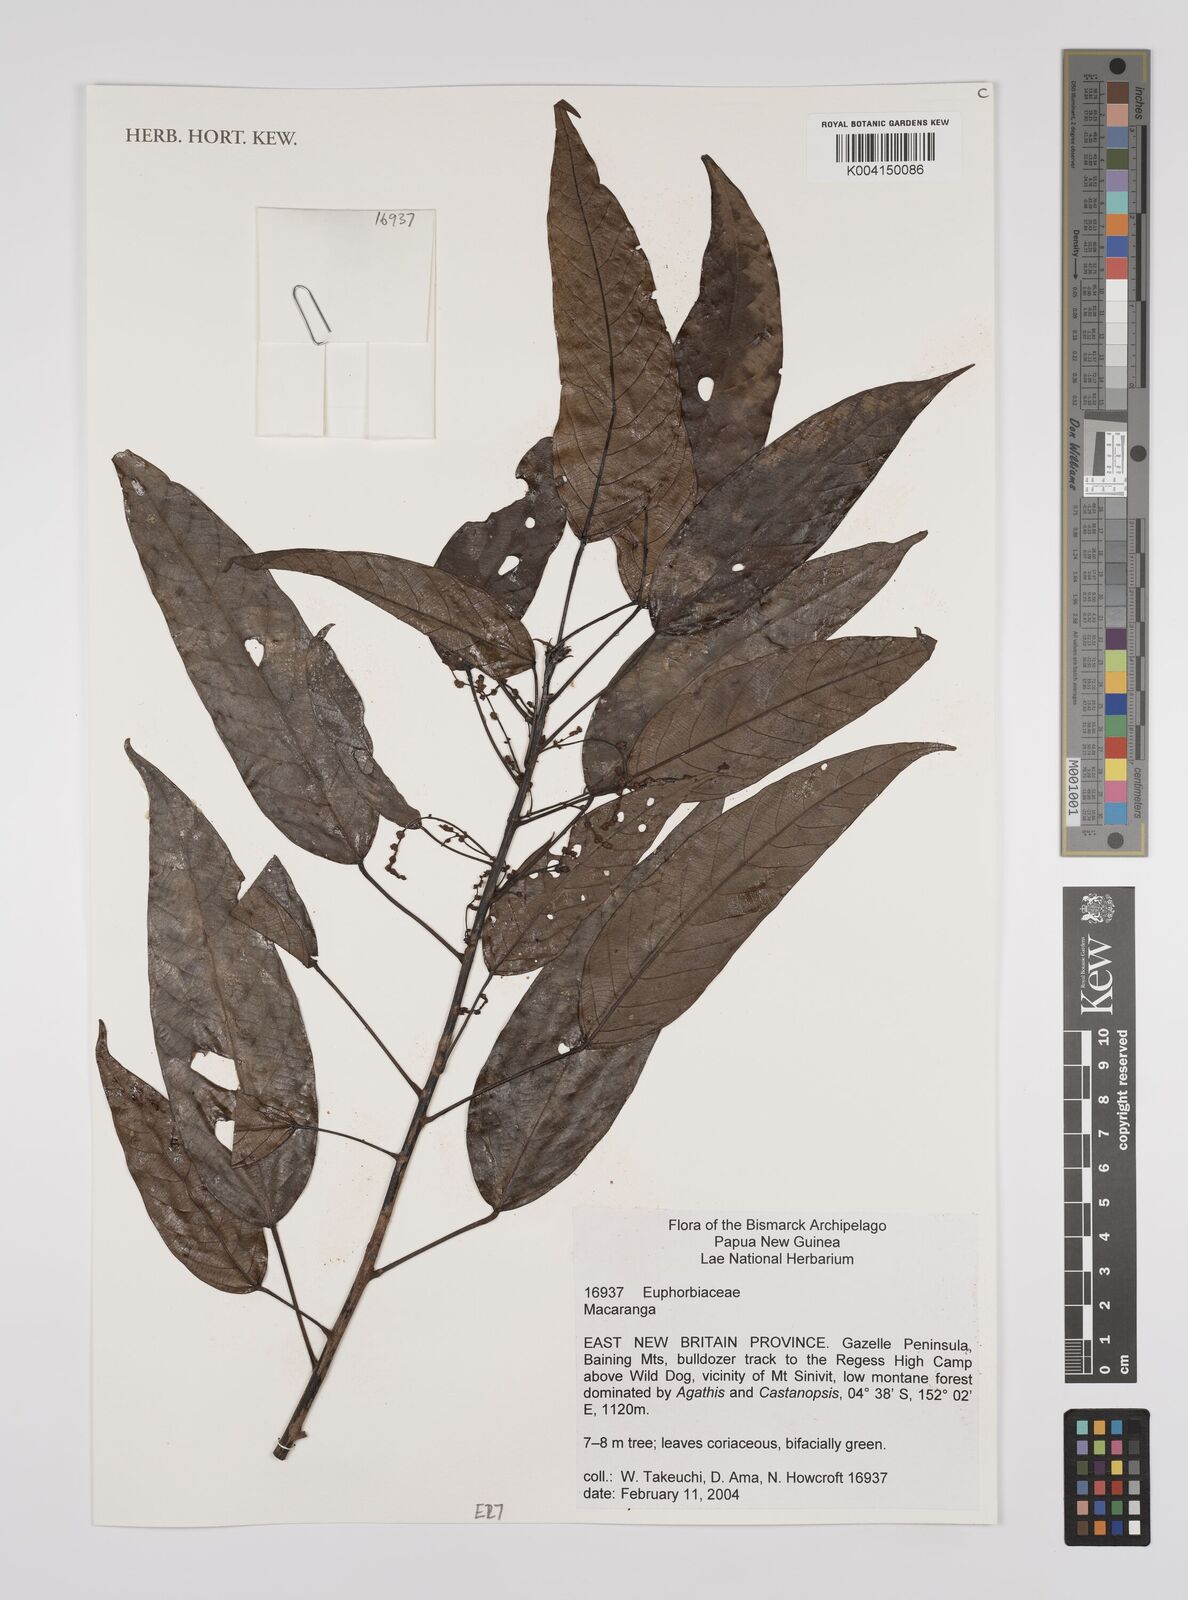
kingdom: Plantae
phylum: Tracheophyta
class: Magnoliopsida
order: Malpighiales
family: Euphorbiaceae
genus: Macaranga
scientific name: Macaranga
